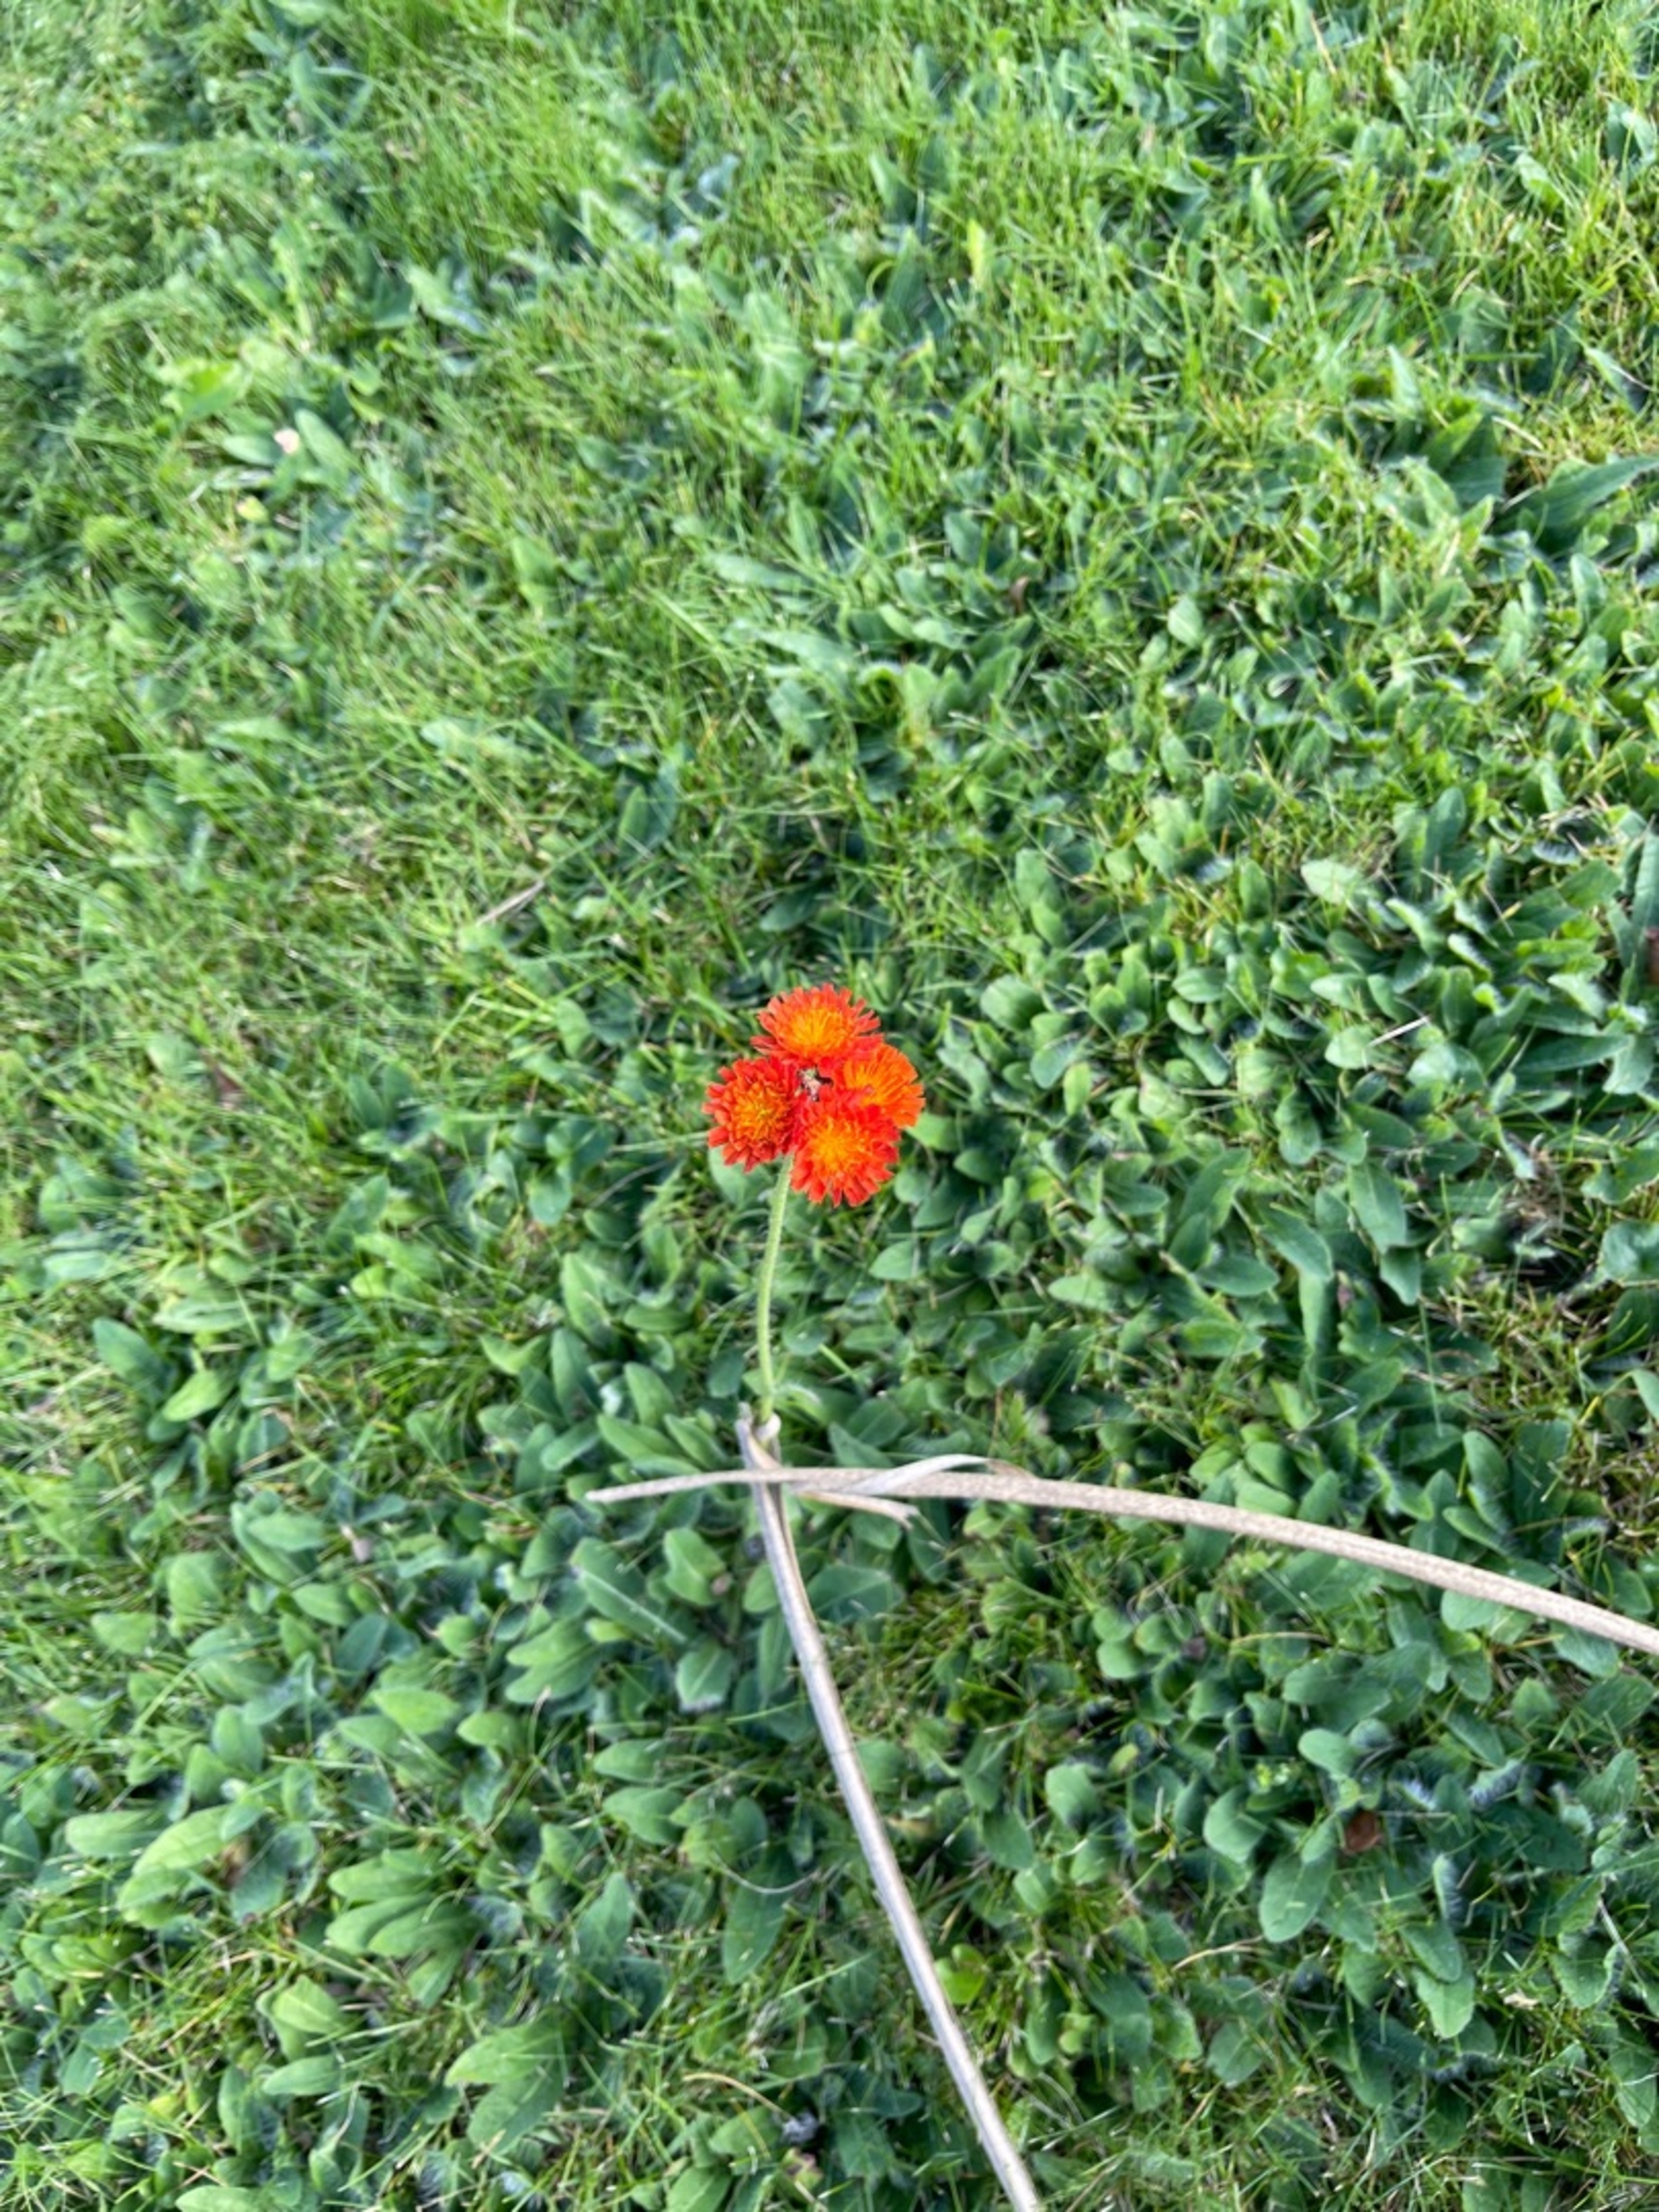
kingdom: Plantae
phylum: Tracheophyta
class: Magnoliopsida
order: Asterales
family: Asteraceae
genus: Pilosella
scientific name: Pilosella aurantiaca
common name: Pomerans-høgeurt (underart)
